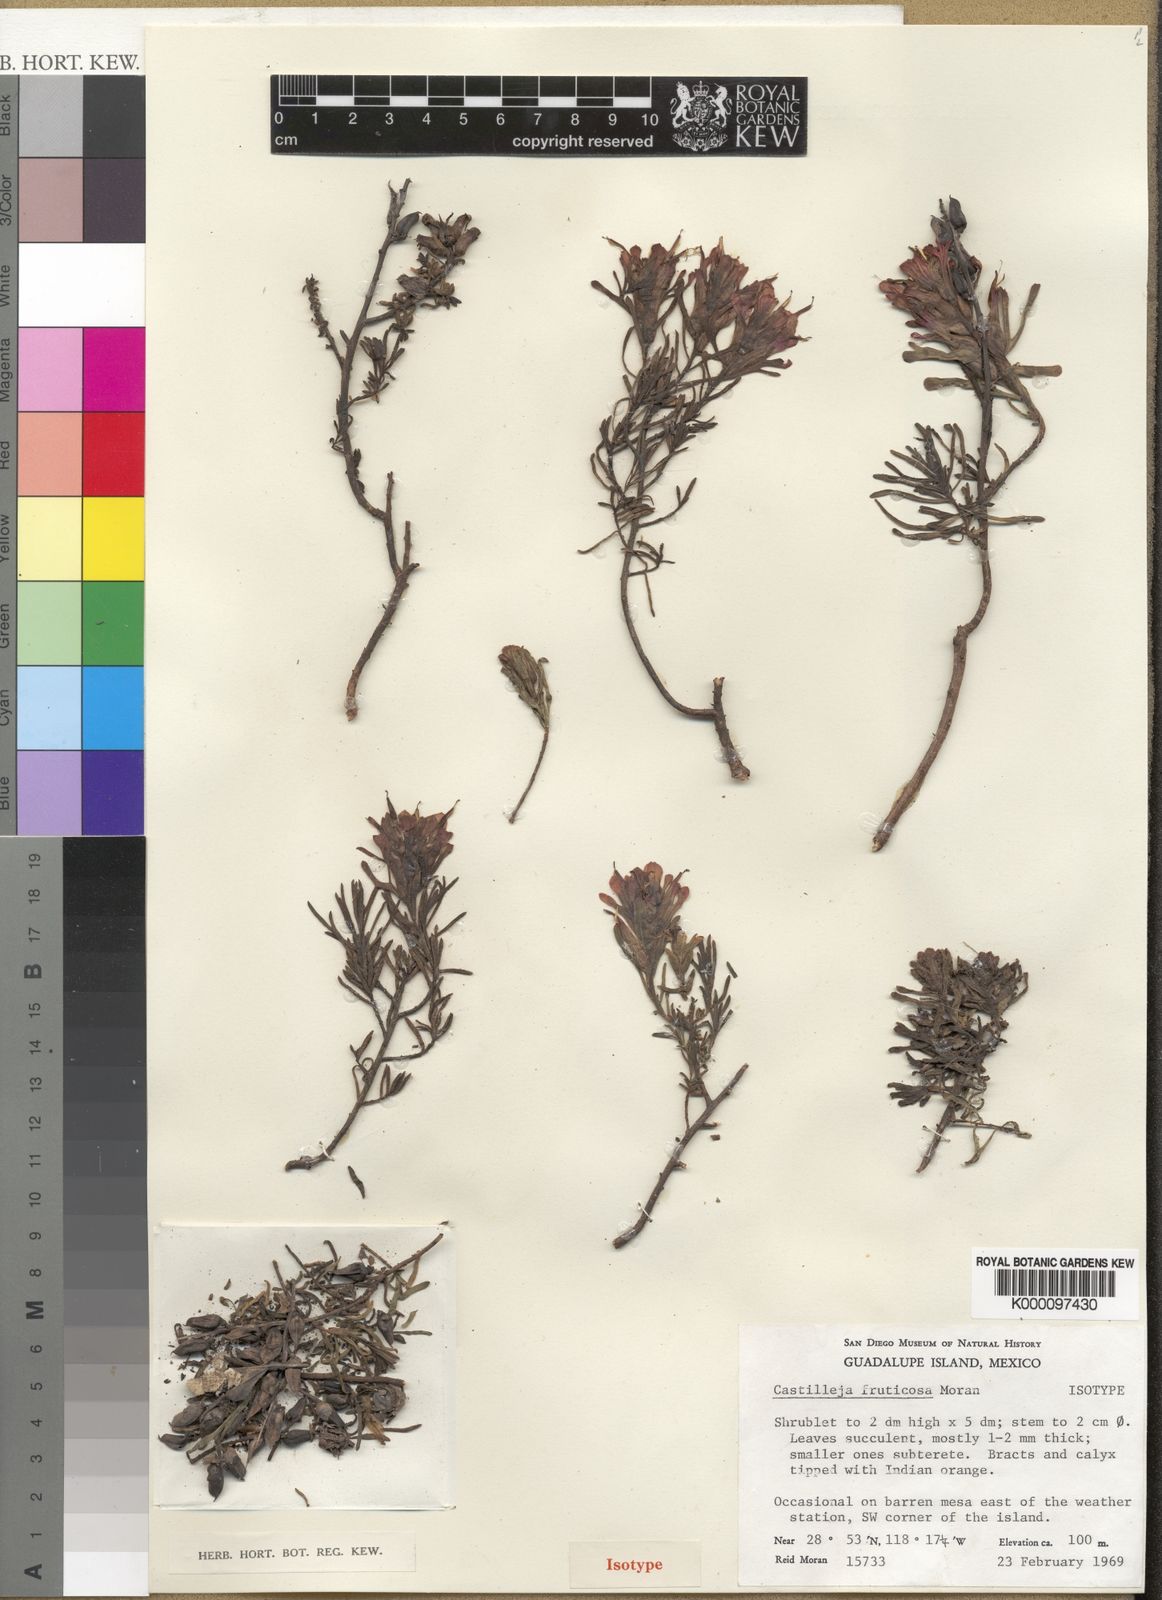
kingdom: Plantae
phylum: Tracheophyta
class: Magnoliopsida
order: Lamiales
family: Orobanchaceae
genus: Castilleja
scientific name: Castilleja fruticosa
